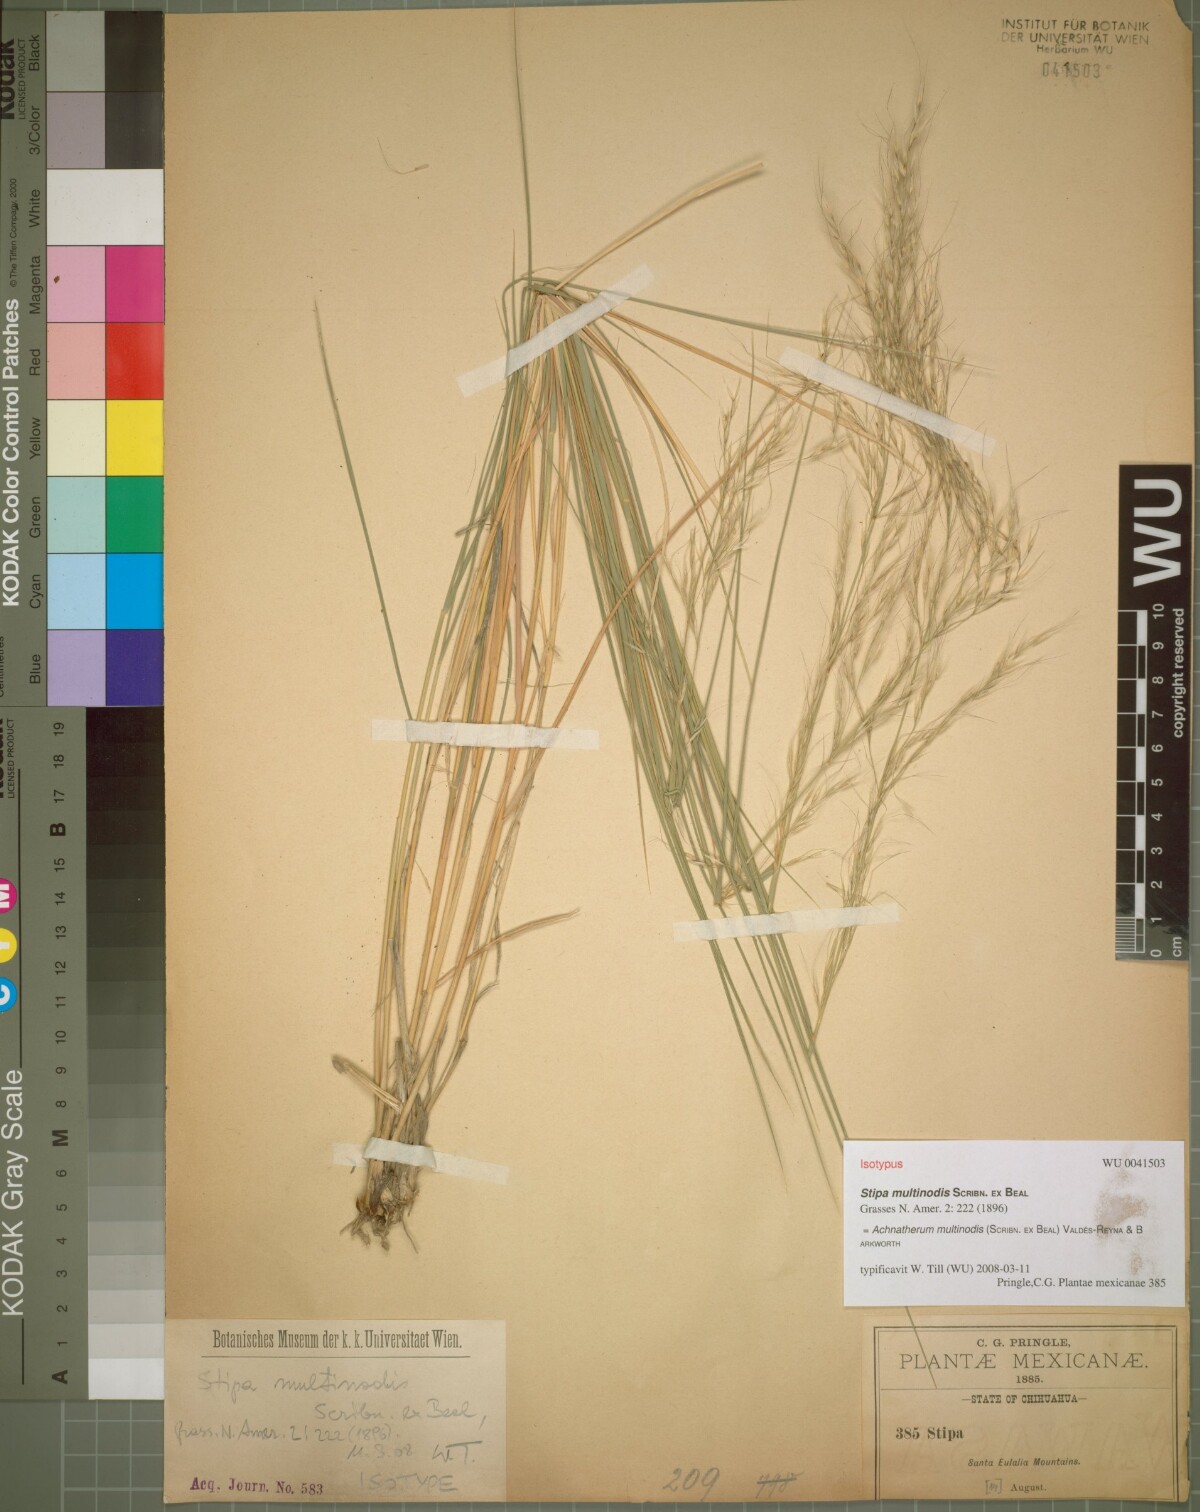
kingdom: Plantae
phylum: Tracheophyta
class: Liliopsida
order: Poales
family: Poaceae
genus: Pseudoeriocoma
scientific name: Pseudoeriocoma multinodis
